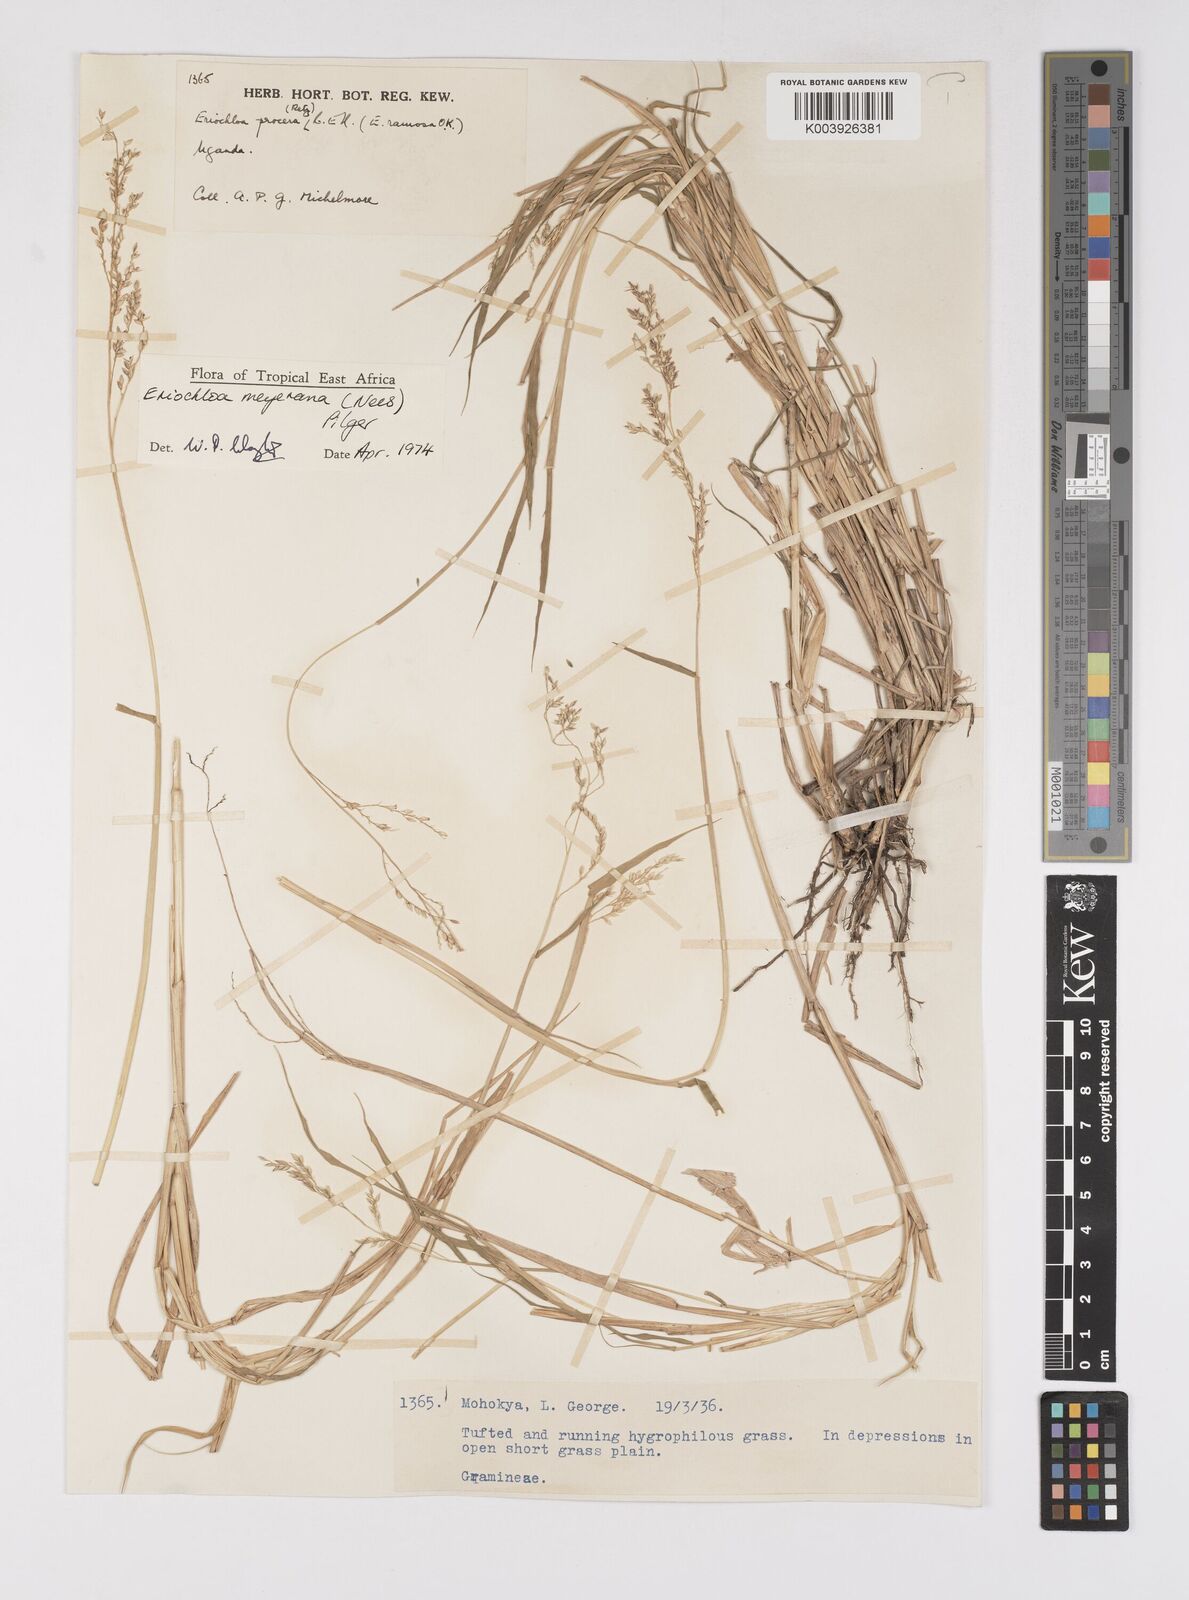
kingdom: Plantae
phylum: Tracheophyta
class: Liliopsida
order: Poales
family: Poaceae
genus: Eriochloa
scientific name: Eriochloa meyeriana
